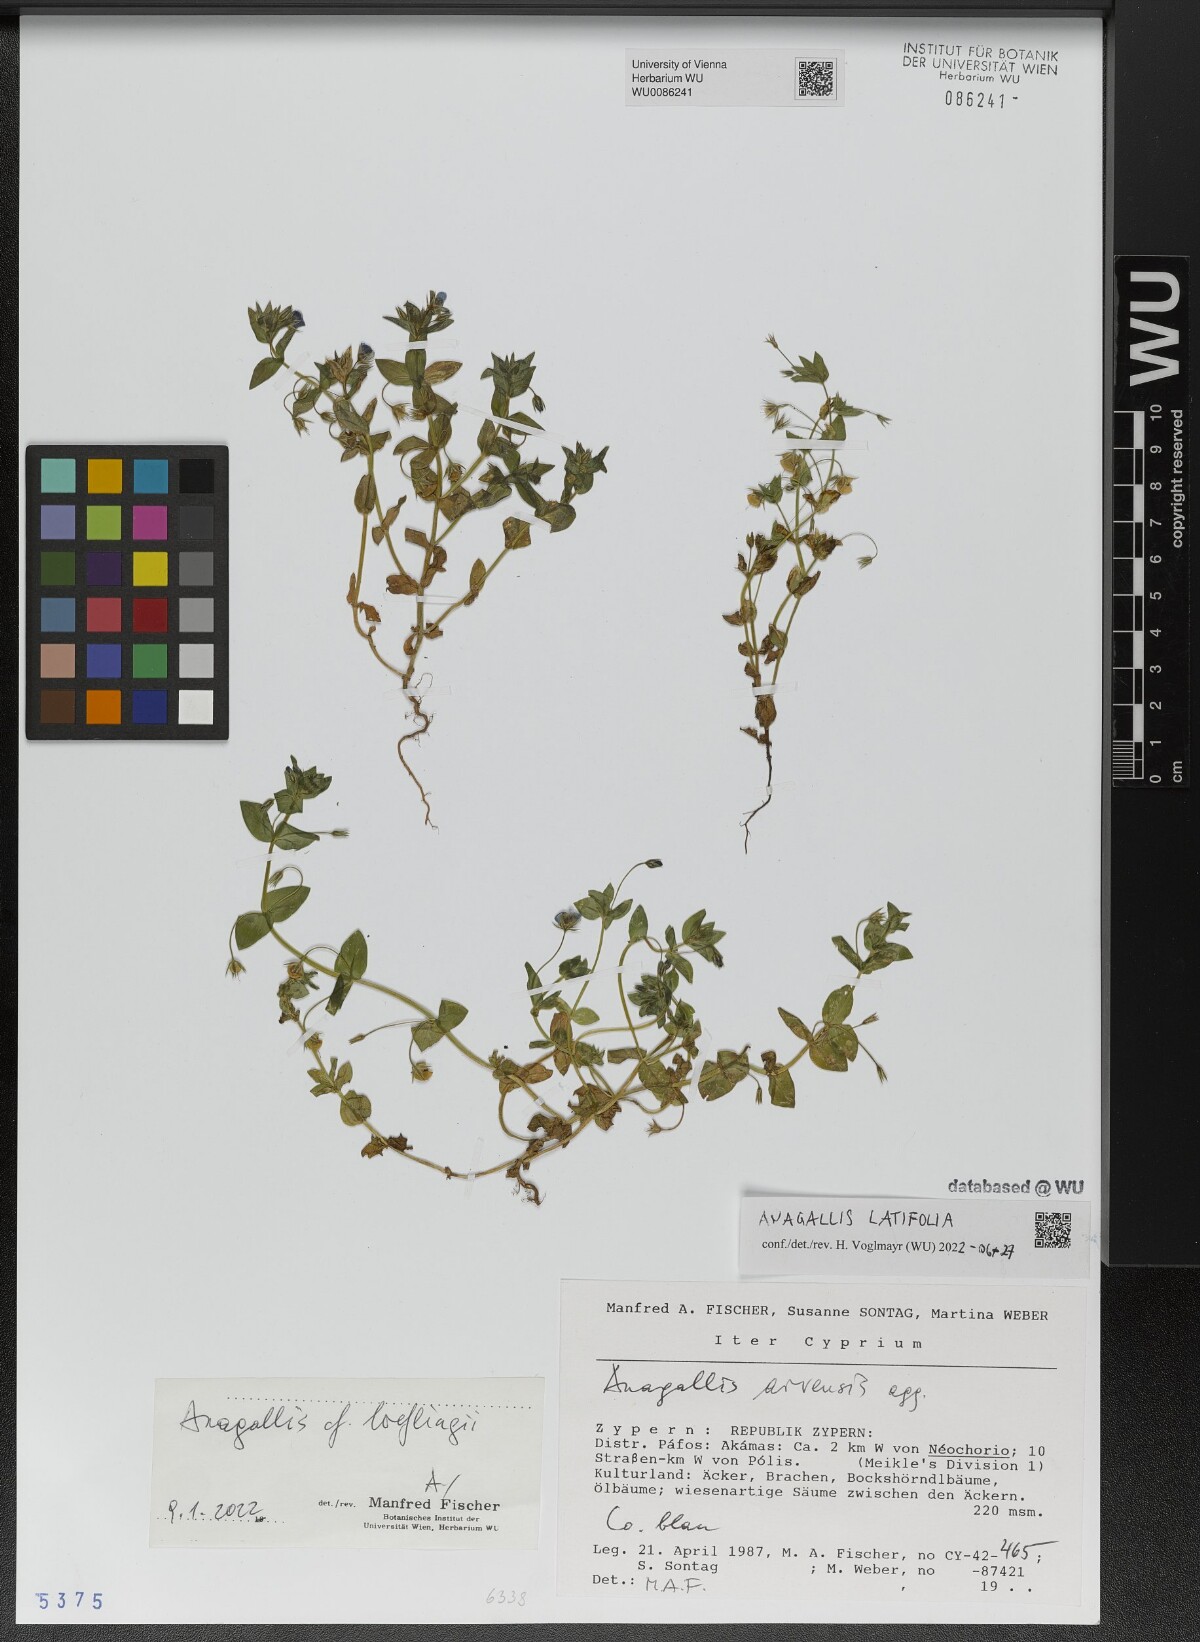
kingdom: Plantae
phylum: Tracheophyta
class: Magnoliopsida
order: Ericales
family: Primulaceae
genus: Lysimachia
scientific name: Lysimachia loeflingii
